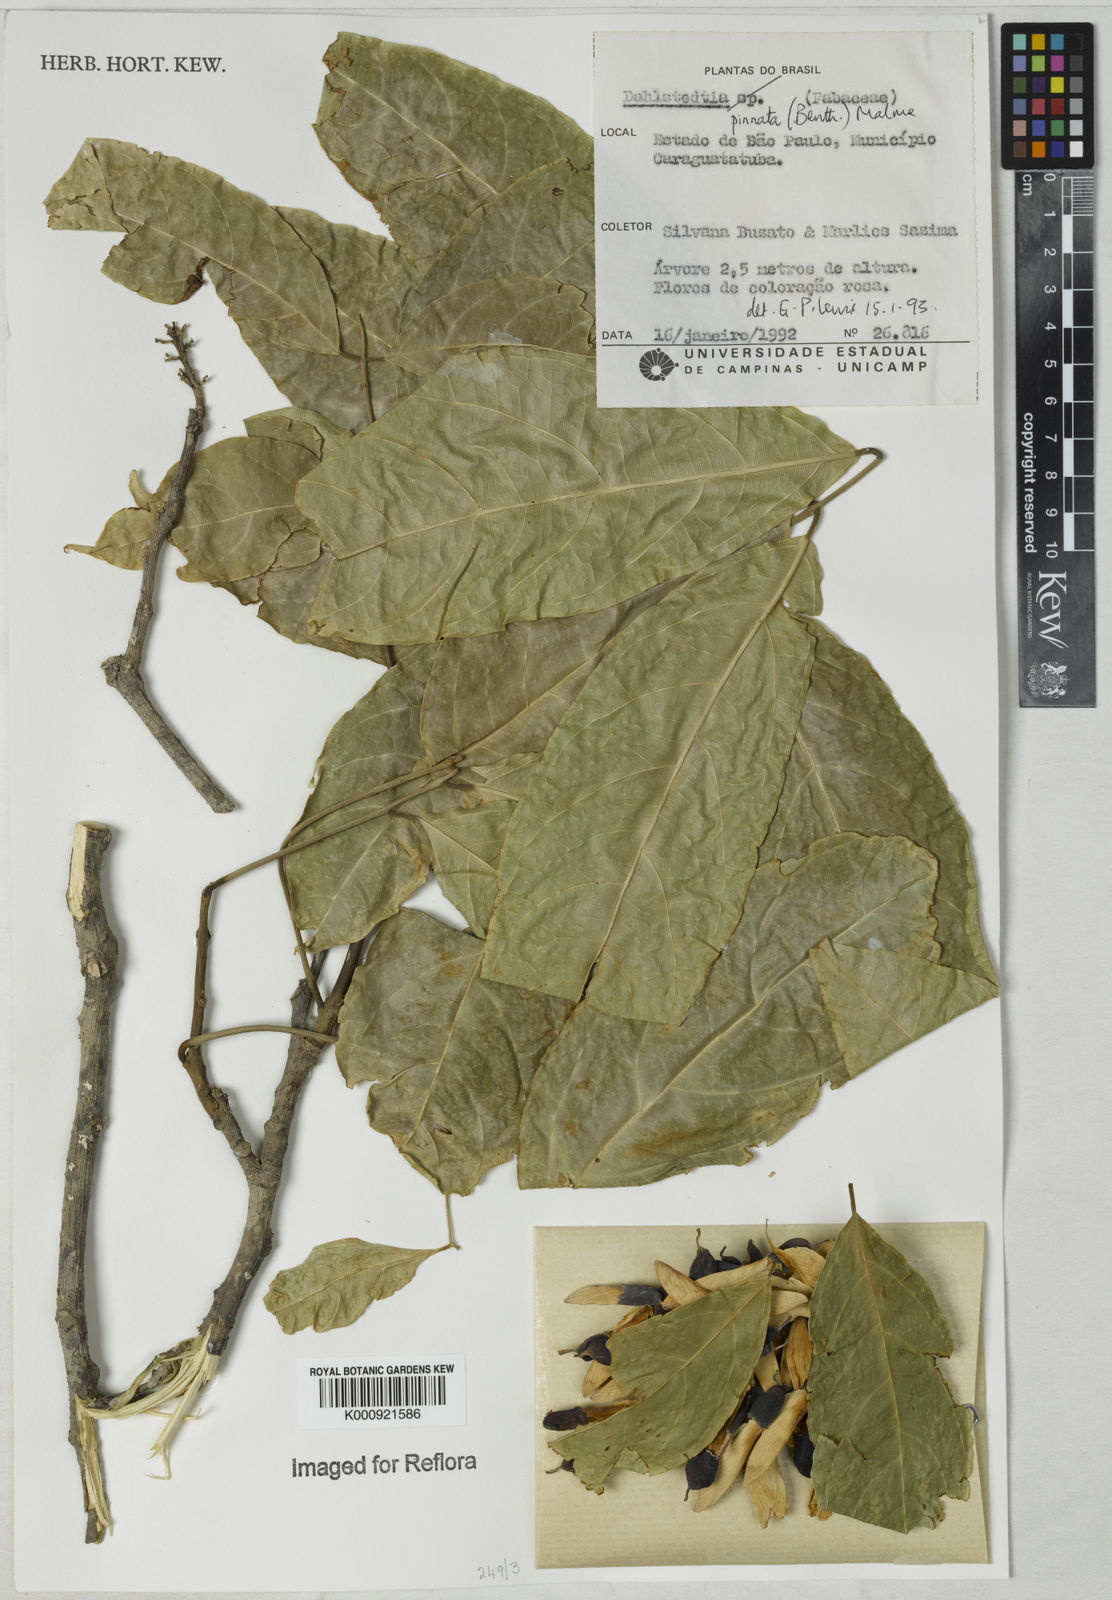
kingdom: Plantae
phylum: Tracheophyta
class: Magnoliopsida
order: Fabales
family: Fabaceae
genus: Dahlstedtia
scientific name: Dahlstedtia pinnata
